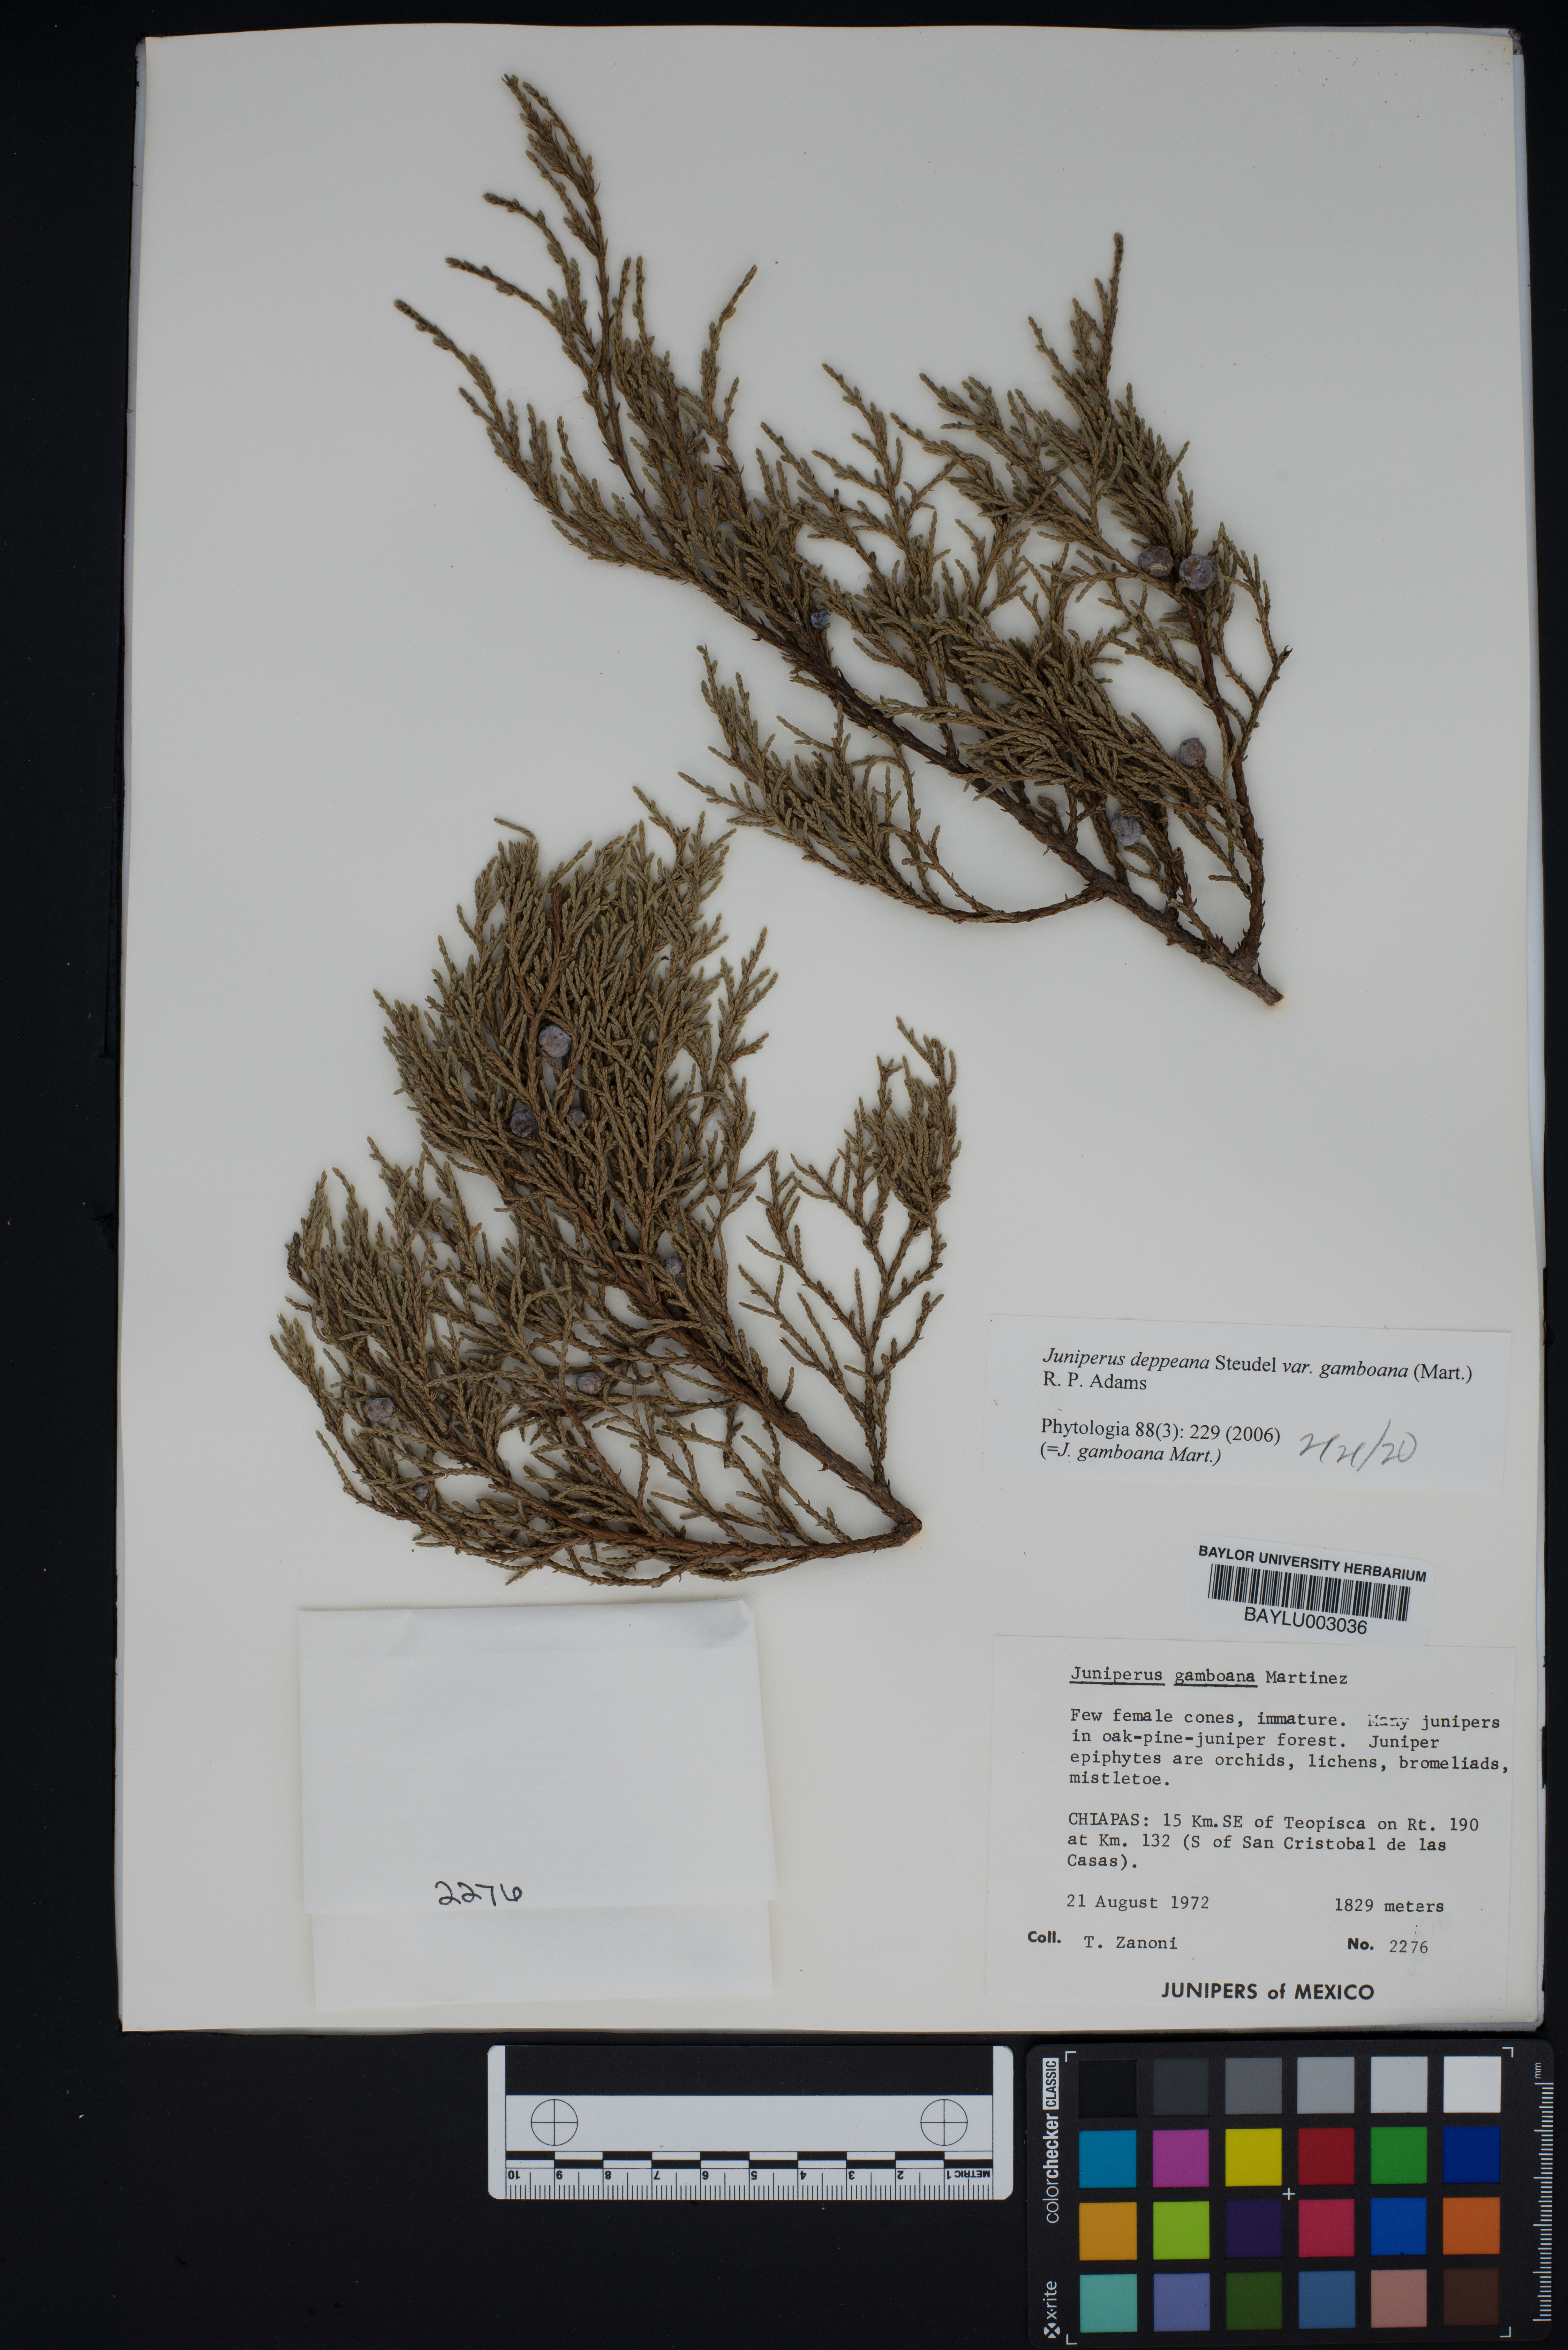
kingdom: Plantae
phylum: Tracheophyta
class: Pinopsida
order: Pinales
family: Cupressaceae
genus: Juniperus
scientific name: Juniperus gamboana
